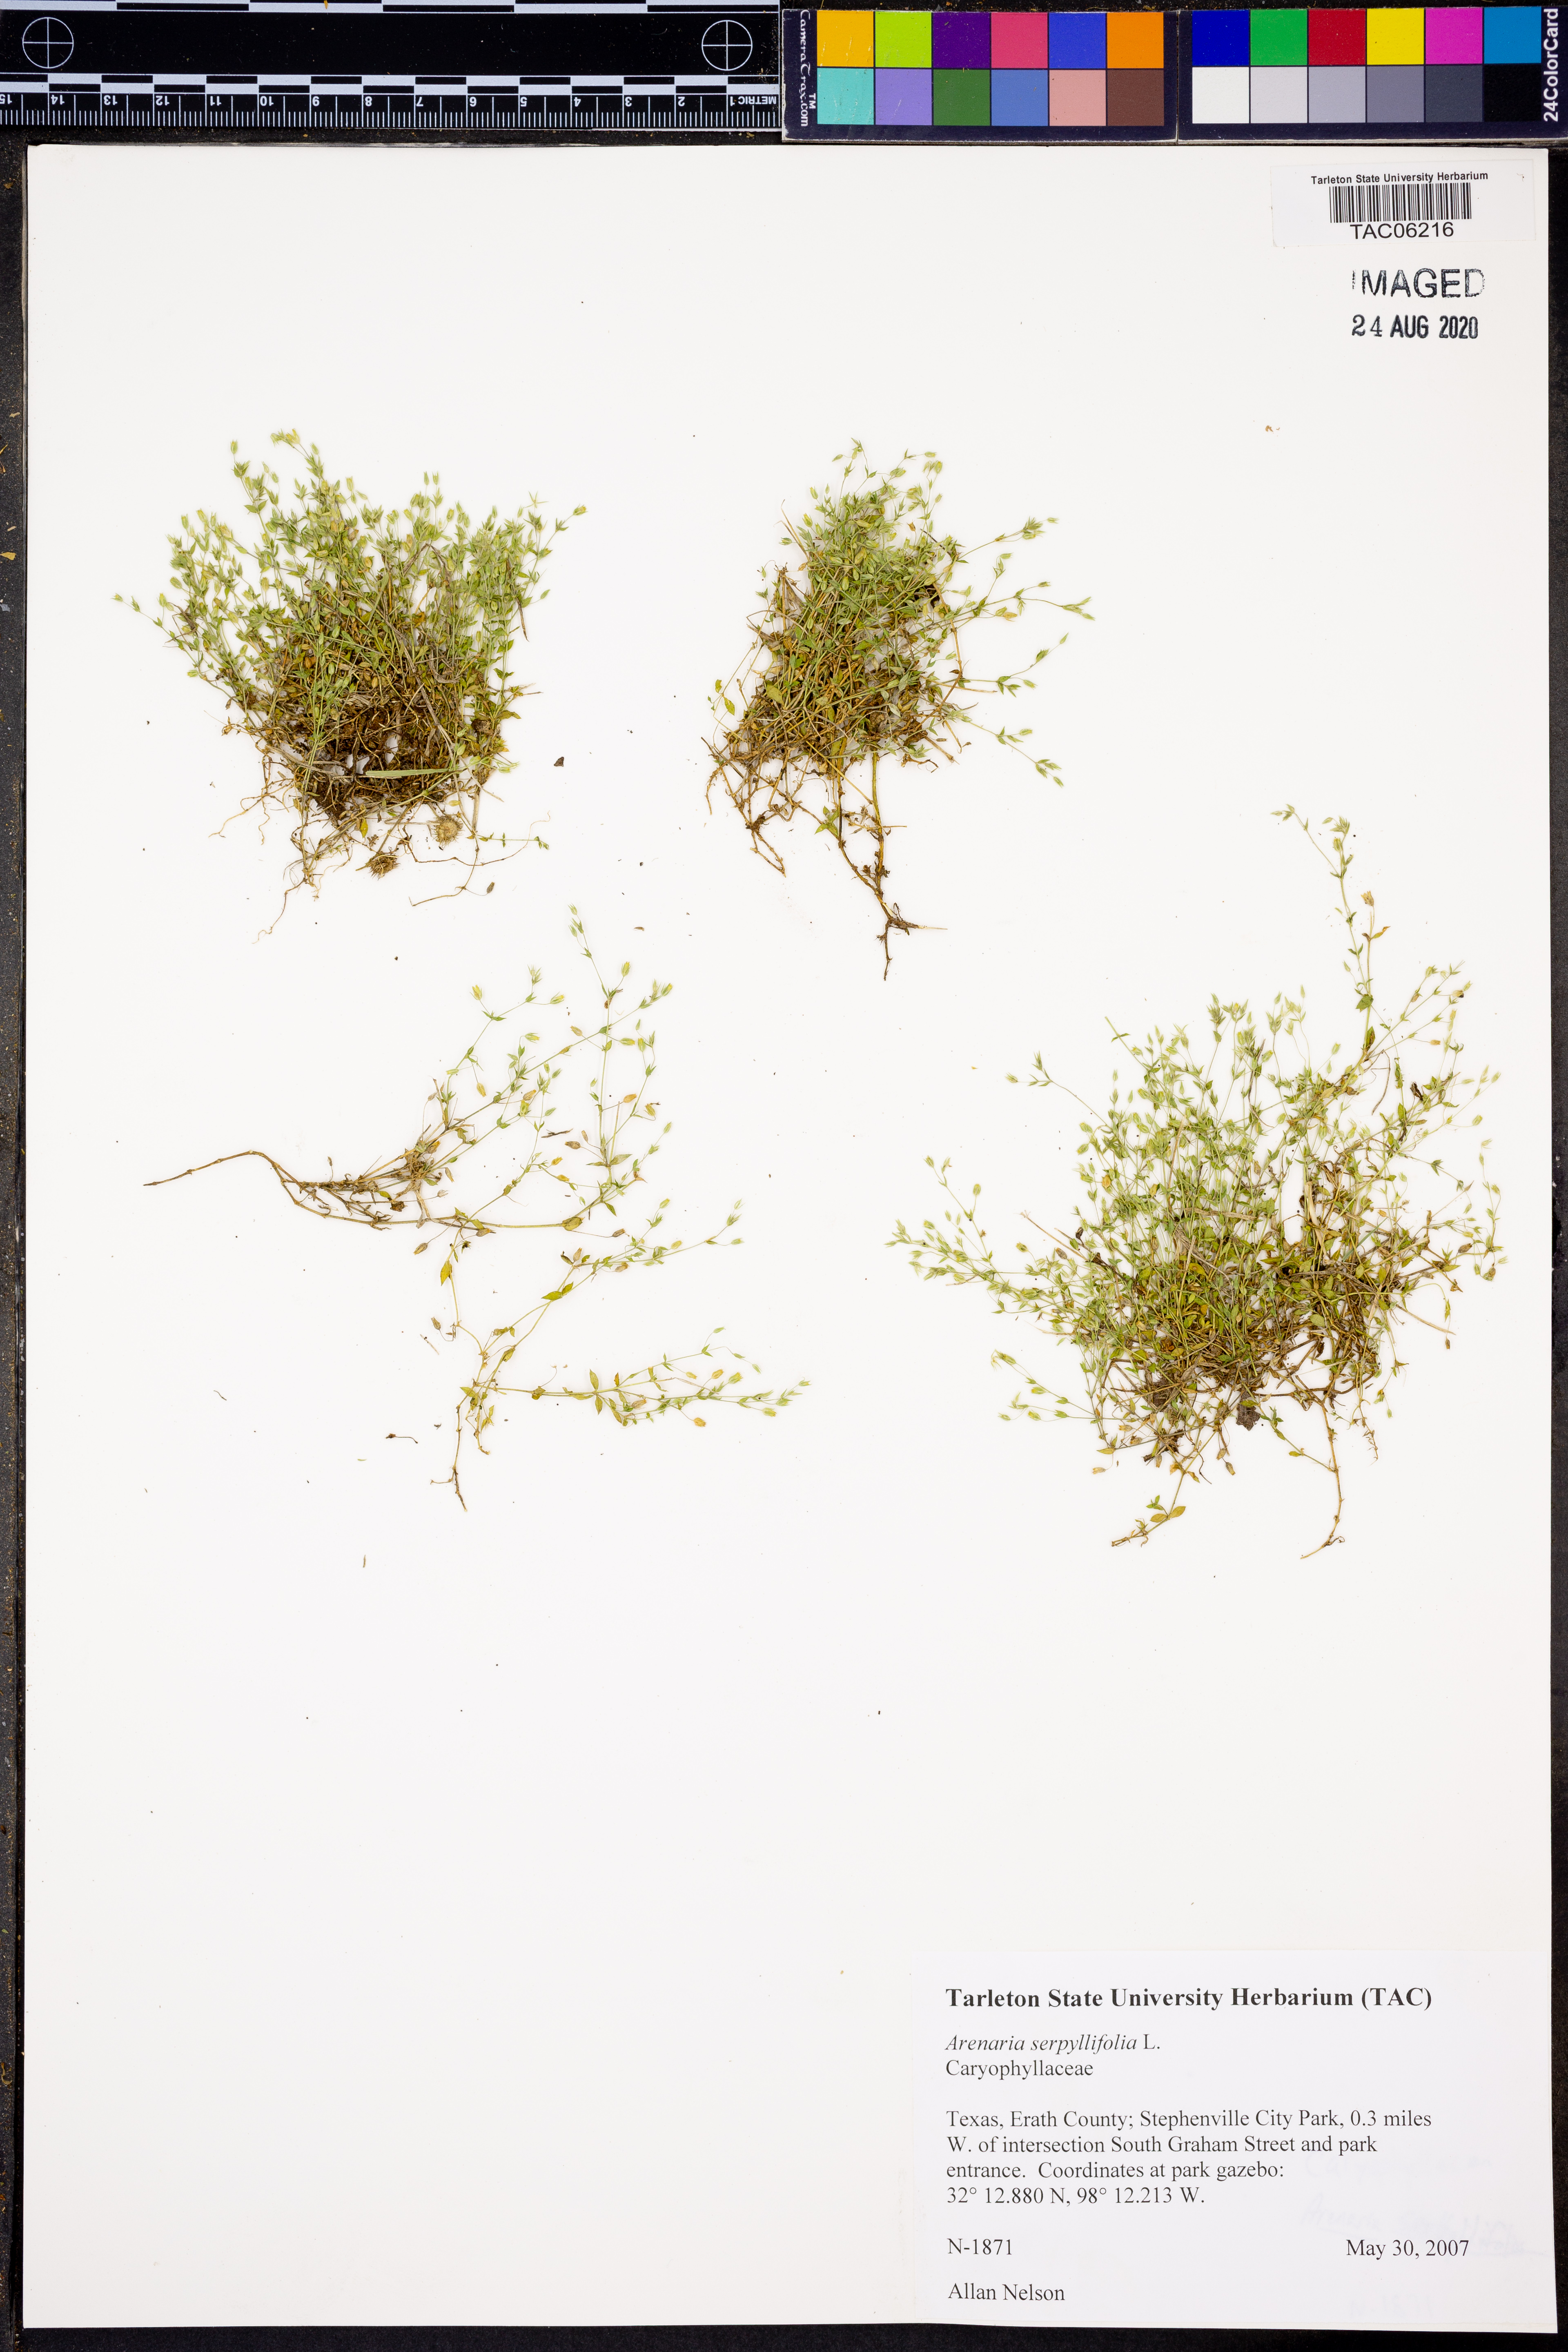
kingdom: Plantae
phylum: Tracheophyta
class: Magnoliopsida
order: Caryophyllales
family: Caryophyllaceae
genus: Arenaria
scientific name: Arenaria serpyllifolia
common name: Thyme-leaved sandwort
